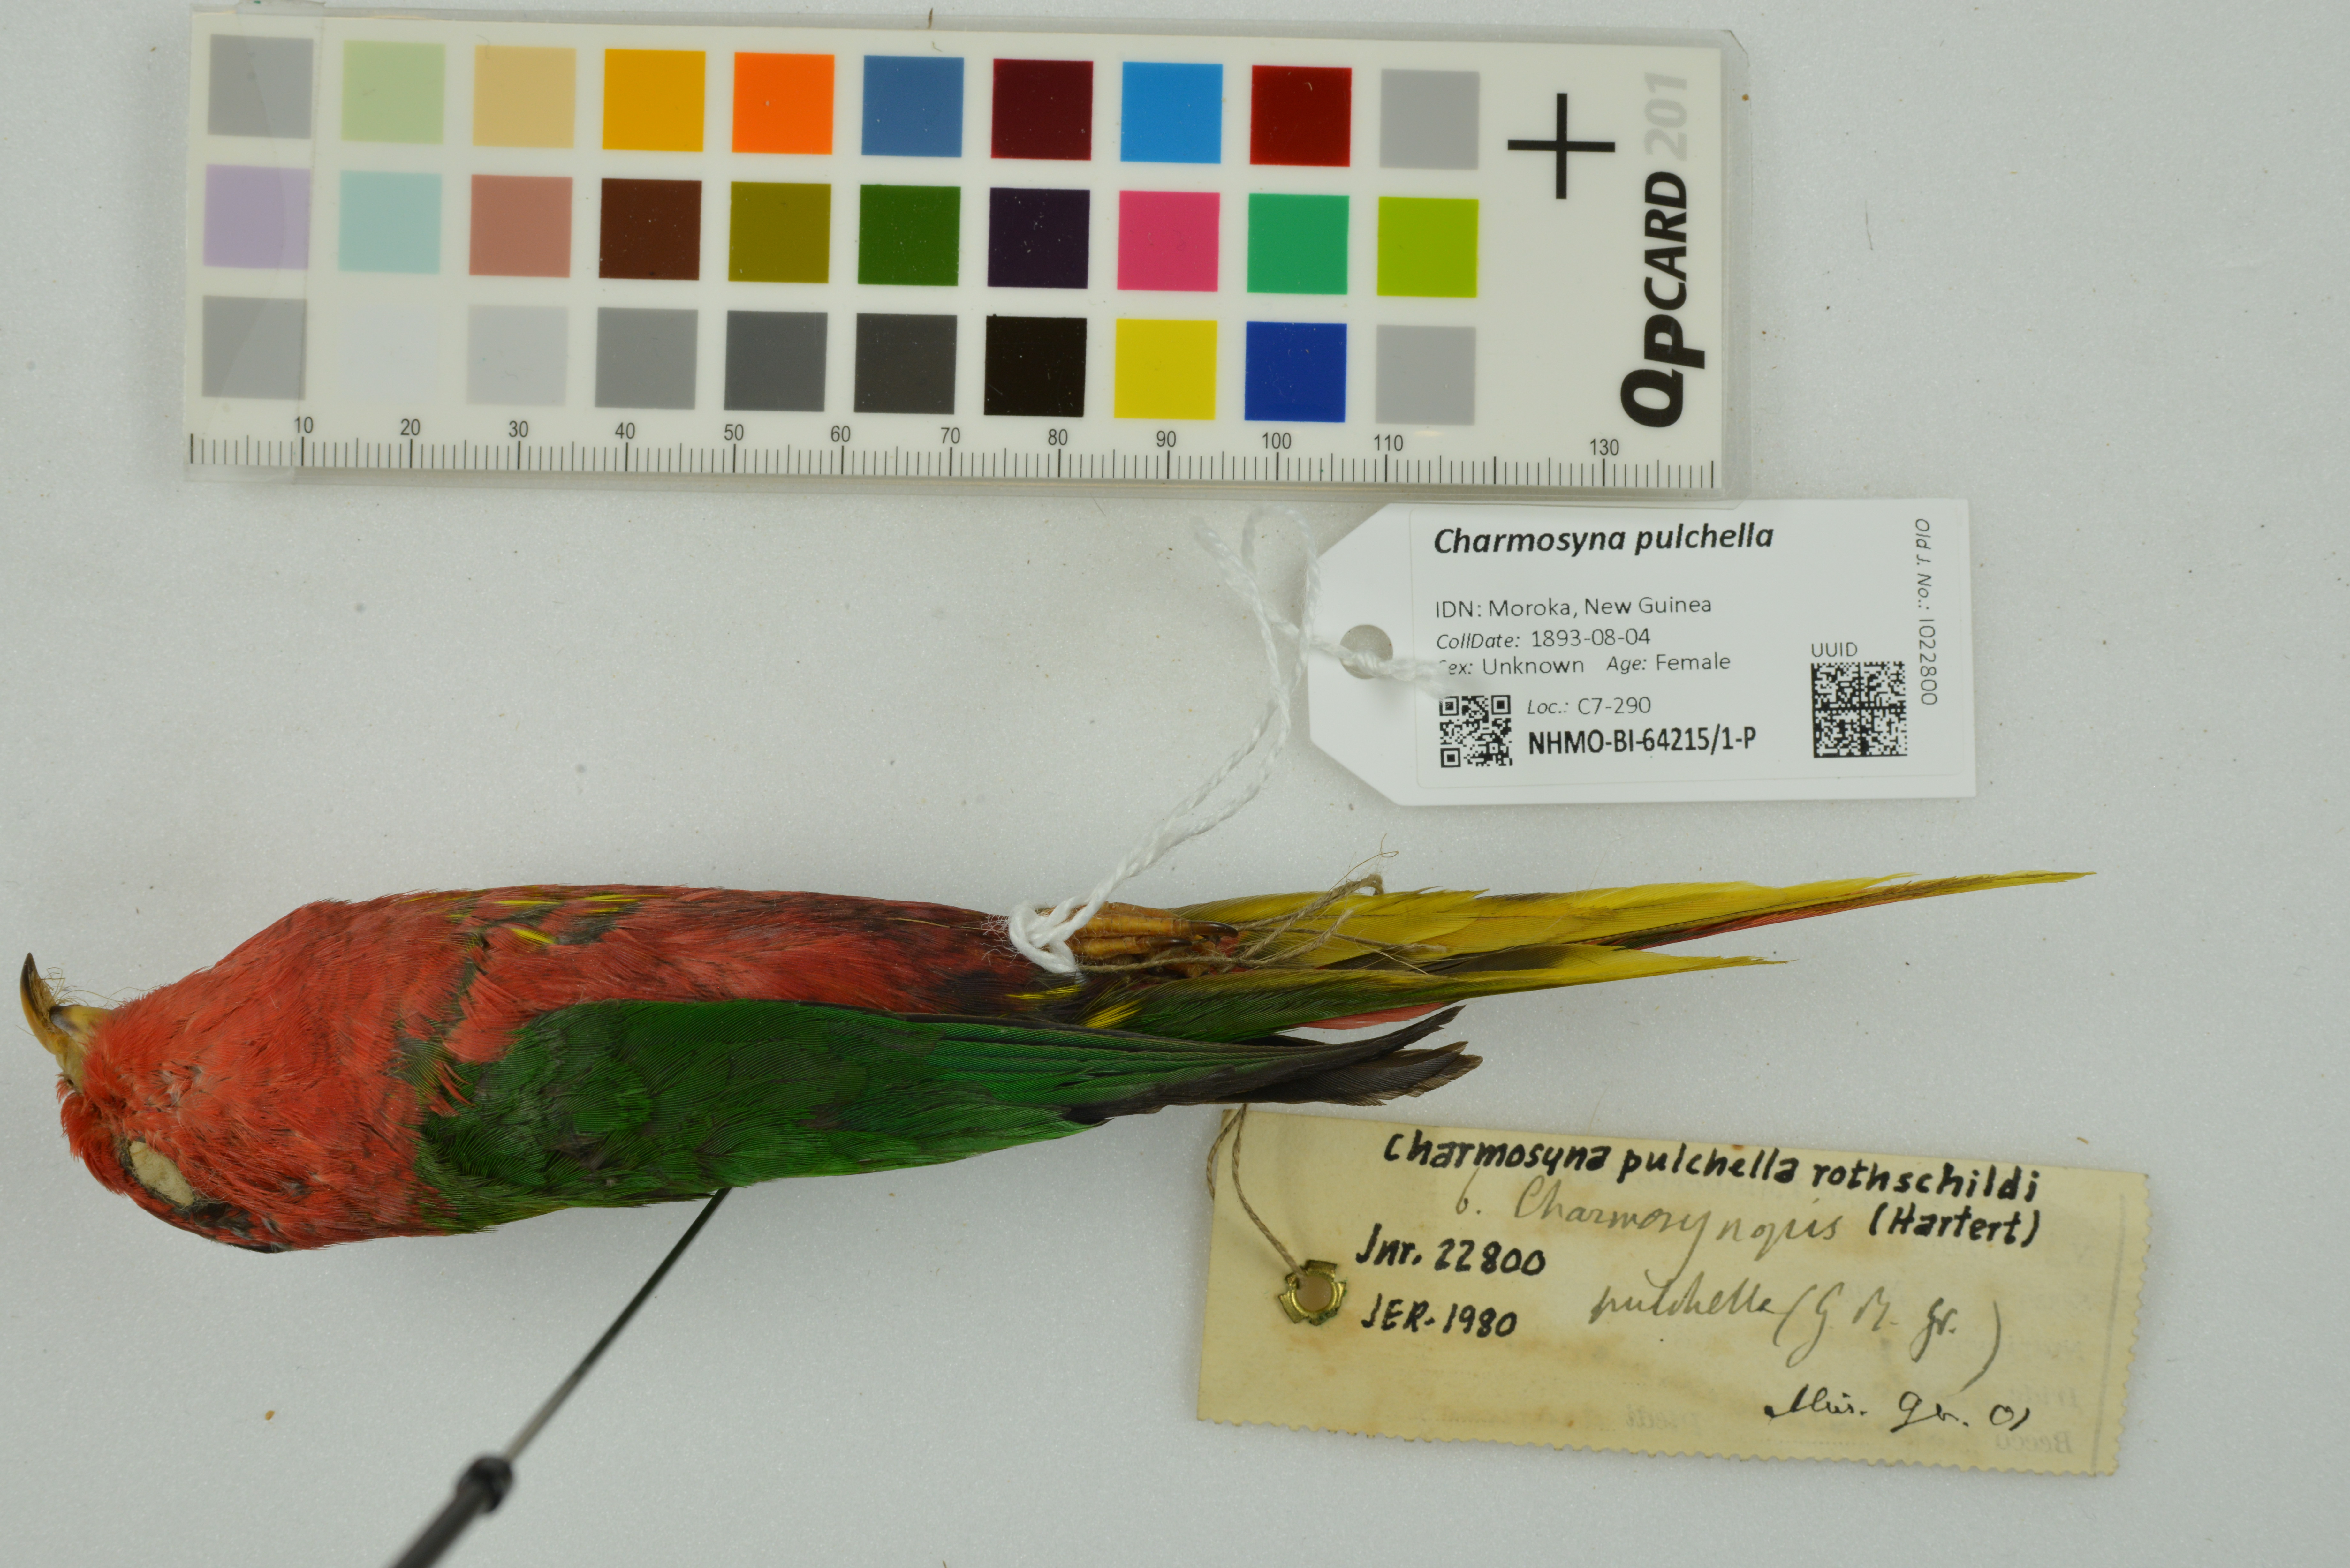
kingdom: Animalia
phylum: Chordata
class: Aves
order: Psittaciformes
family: Psittaculidae
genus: Charmosynopsis
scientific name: Charmosynopsis pulchella
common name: Fairy lorikeet
